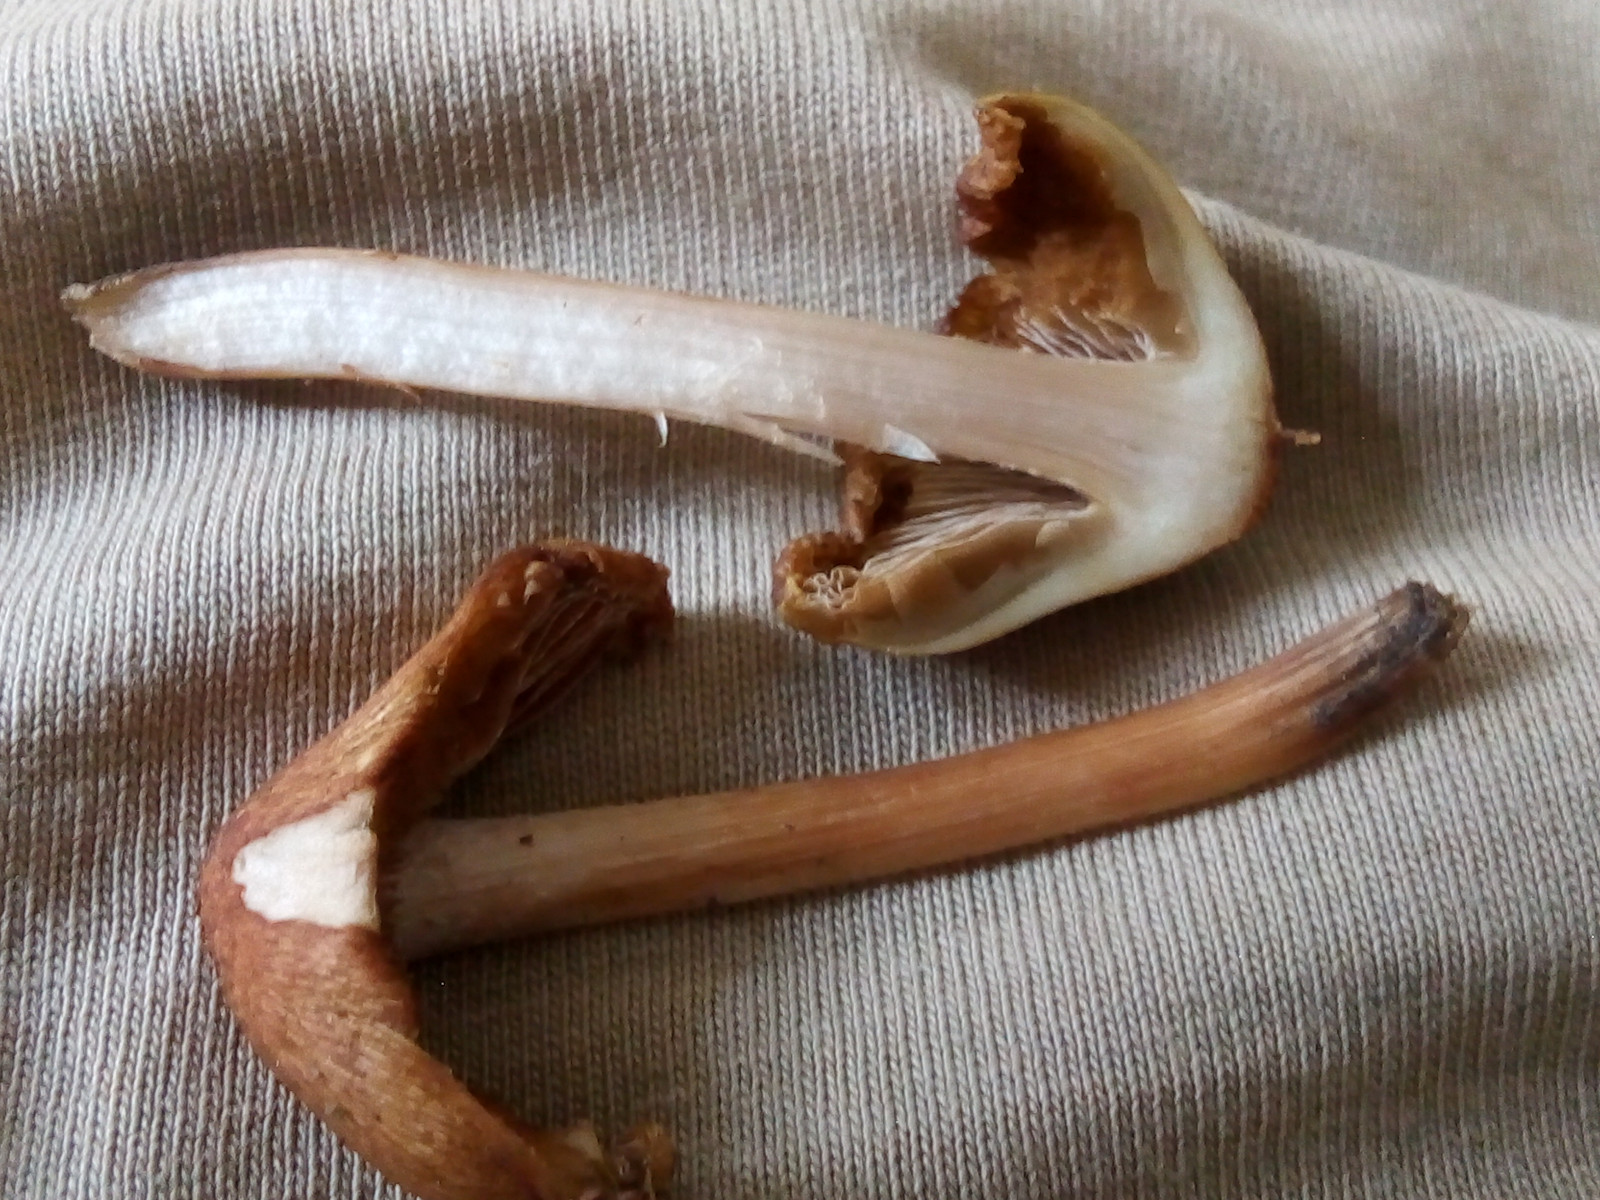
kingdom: Fungi
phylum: Basidiomycota
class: Agaricomycetes
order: Agaricales
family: Inocybaceae
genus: Inosperma
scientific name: Inosperma
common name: Trævlhat
